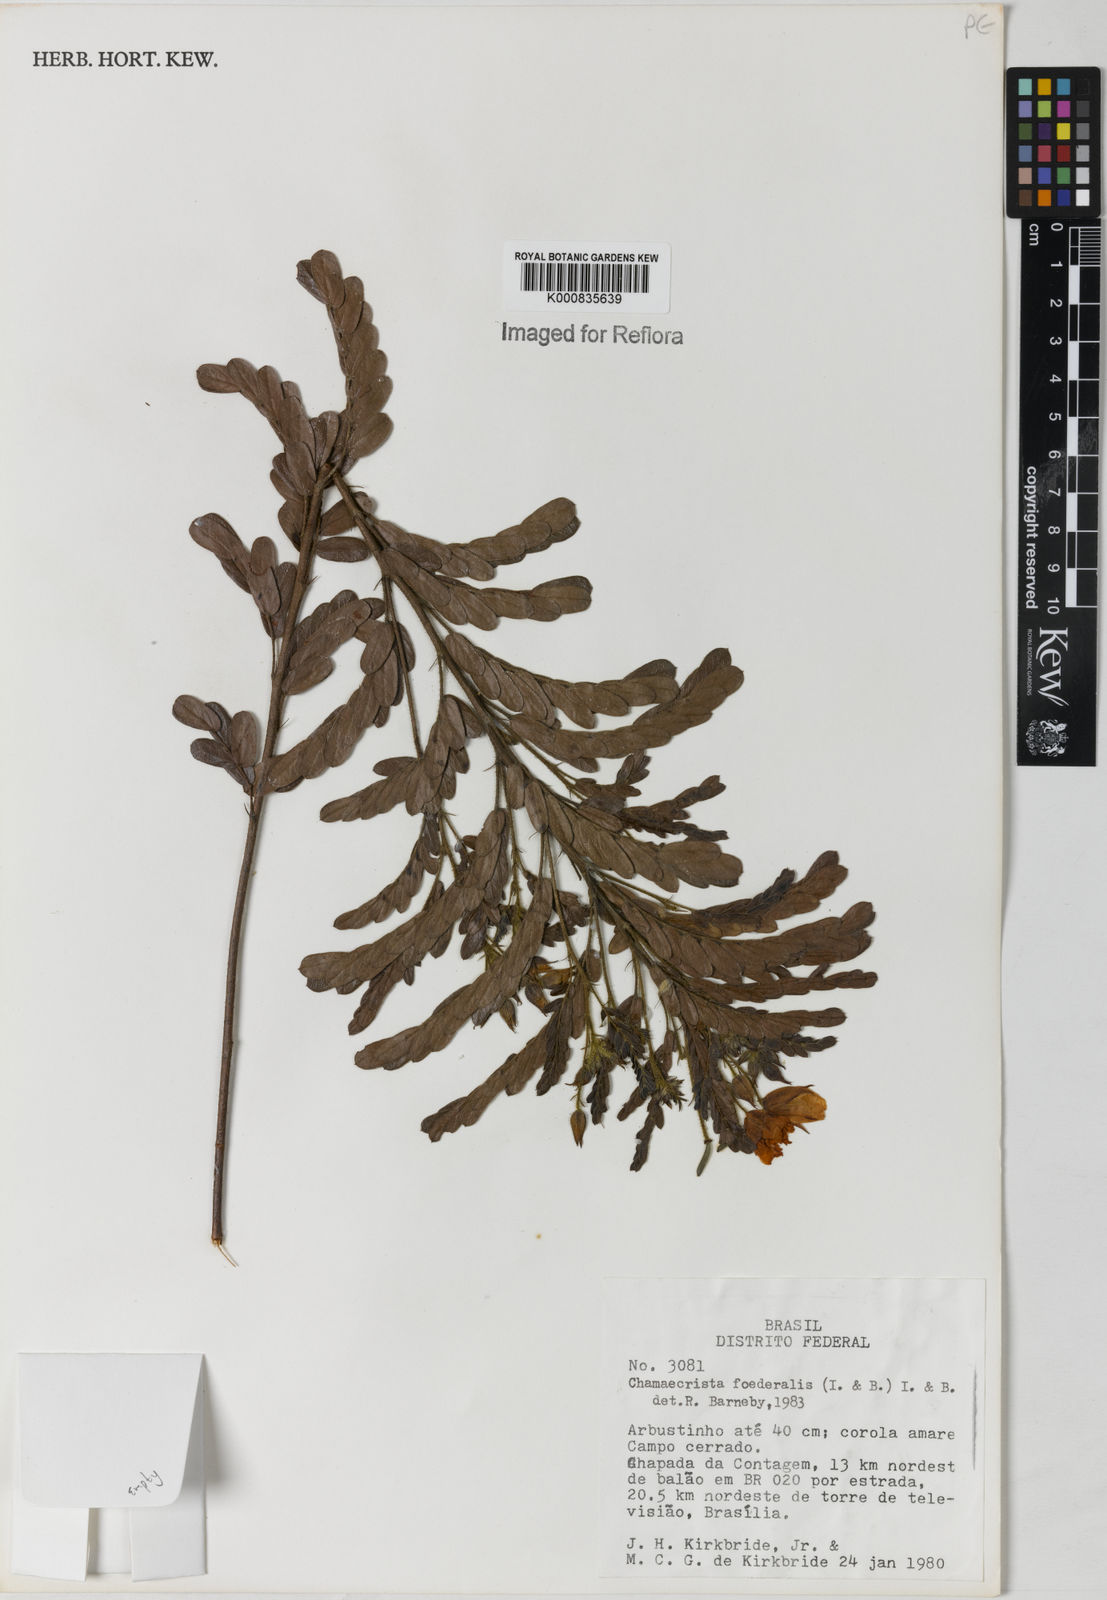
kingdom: Plantae
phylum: Tracheophyta
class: Magnoliopsida
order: Fabales
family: Fabaceae
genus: Chamaecrista
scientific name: Chamaecrista foederalis
